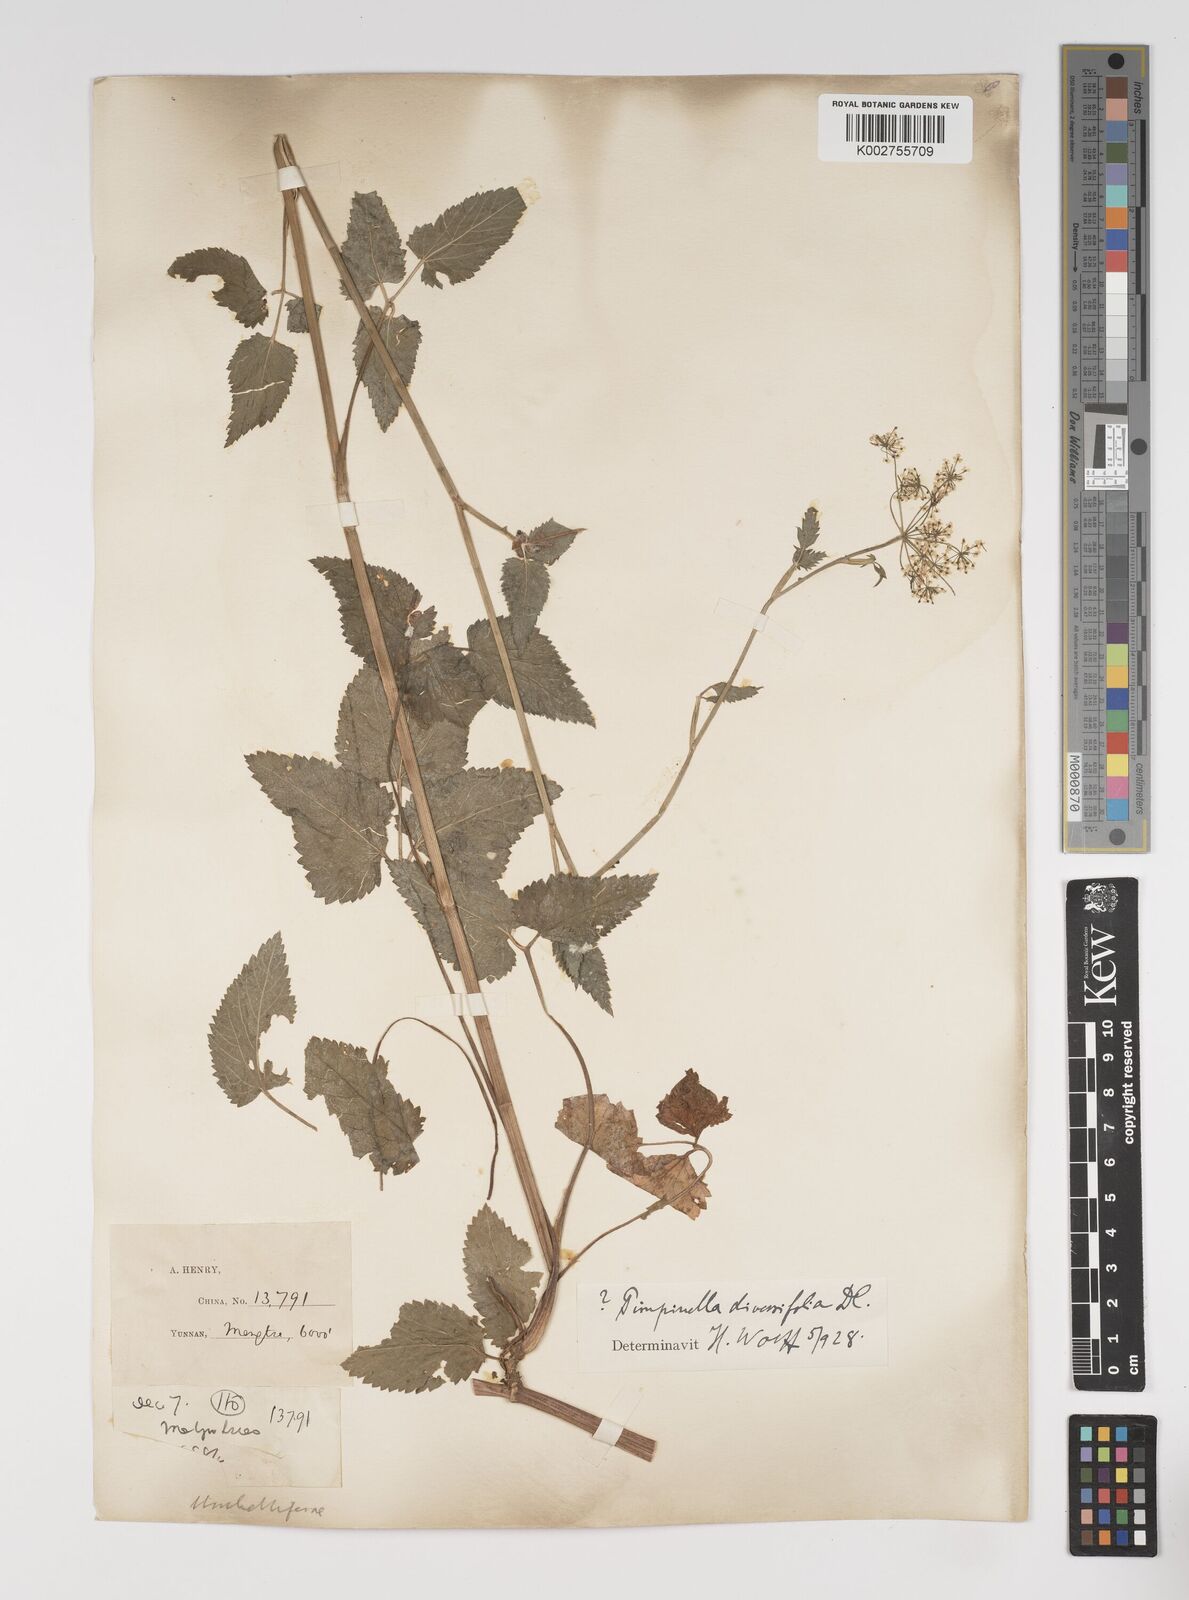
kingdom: Plantae
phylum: Tracheophyta
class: Magnoliopsida
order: Apiales
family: Apiaceae
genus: Pimpinella
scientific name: Pimpinella diversifolia
